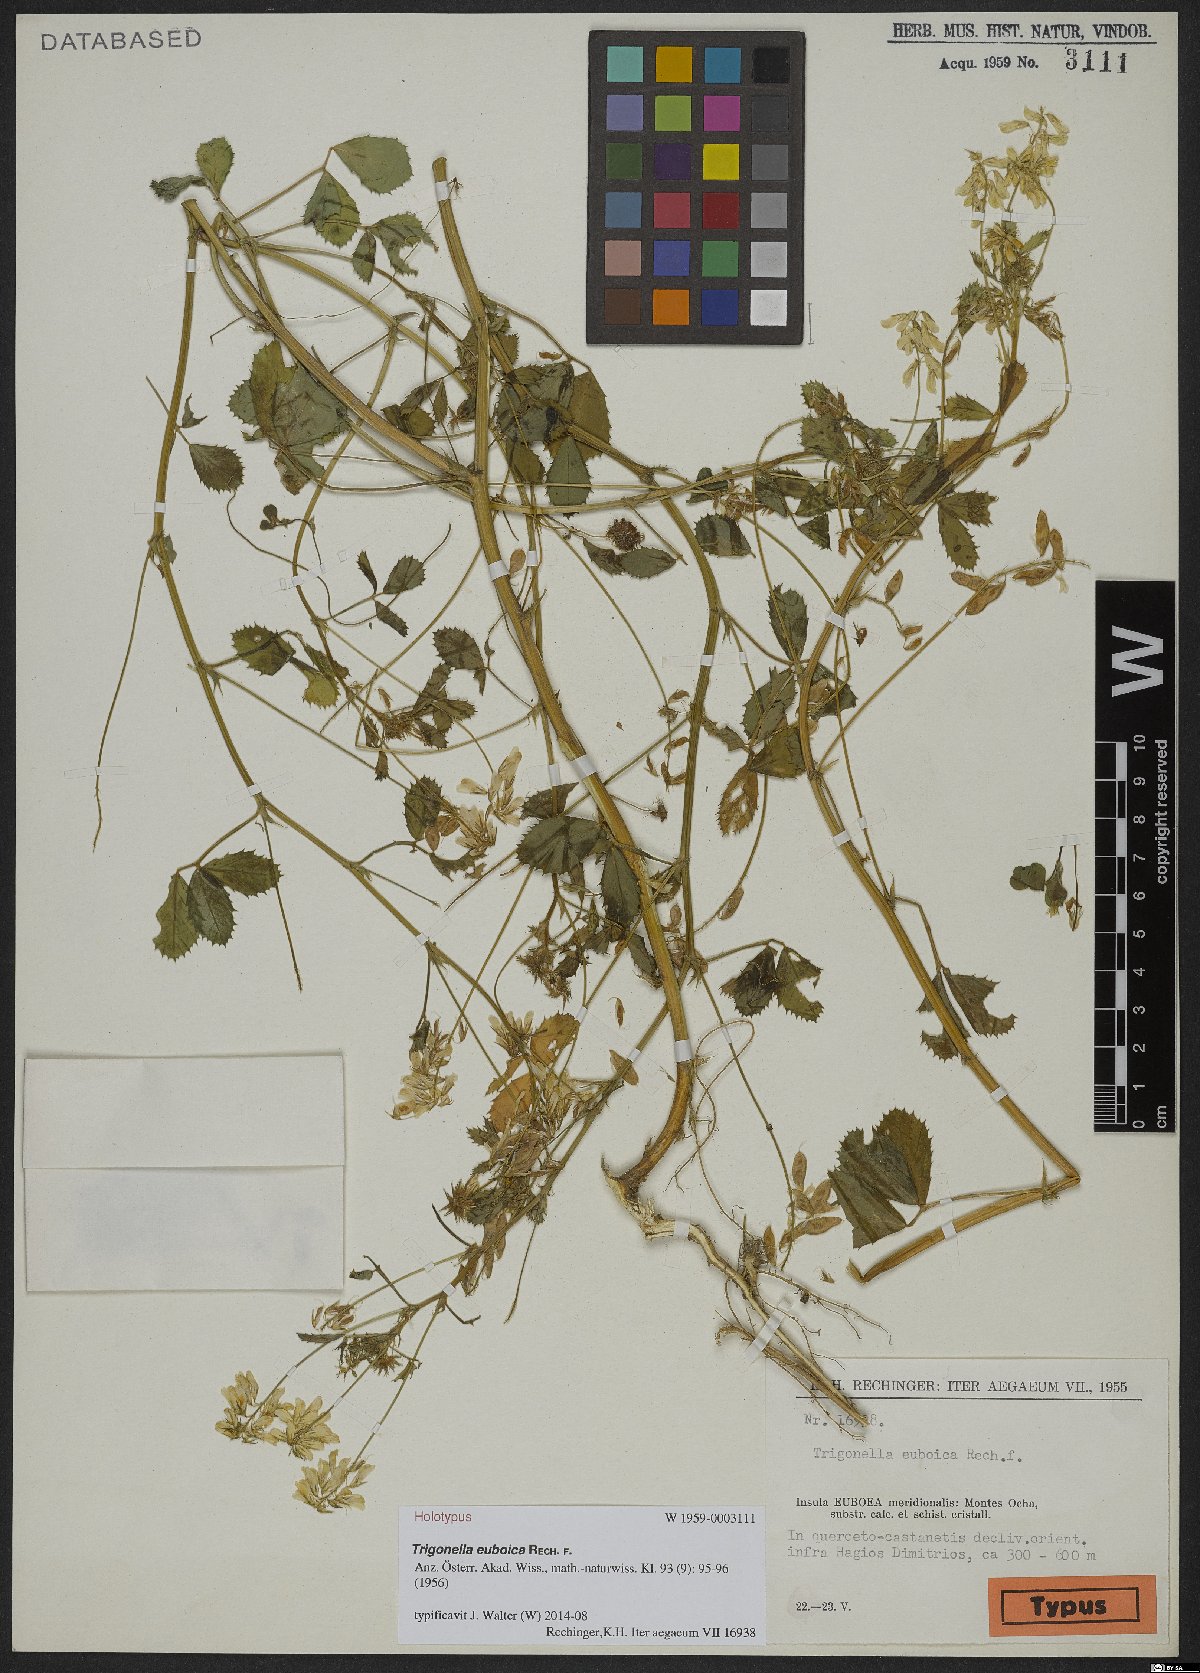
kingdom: Plantae
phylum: Tracheophyta
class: Magnoliopsida
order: Fabales
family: Fabaceae
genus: Trigonella
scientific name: Trigonella balansae
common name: Sickle-fruited fenugreek
